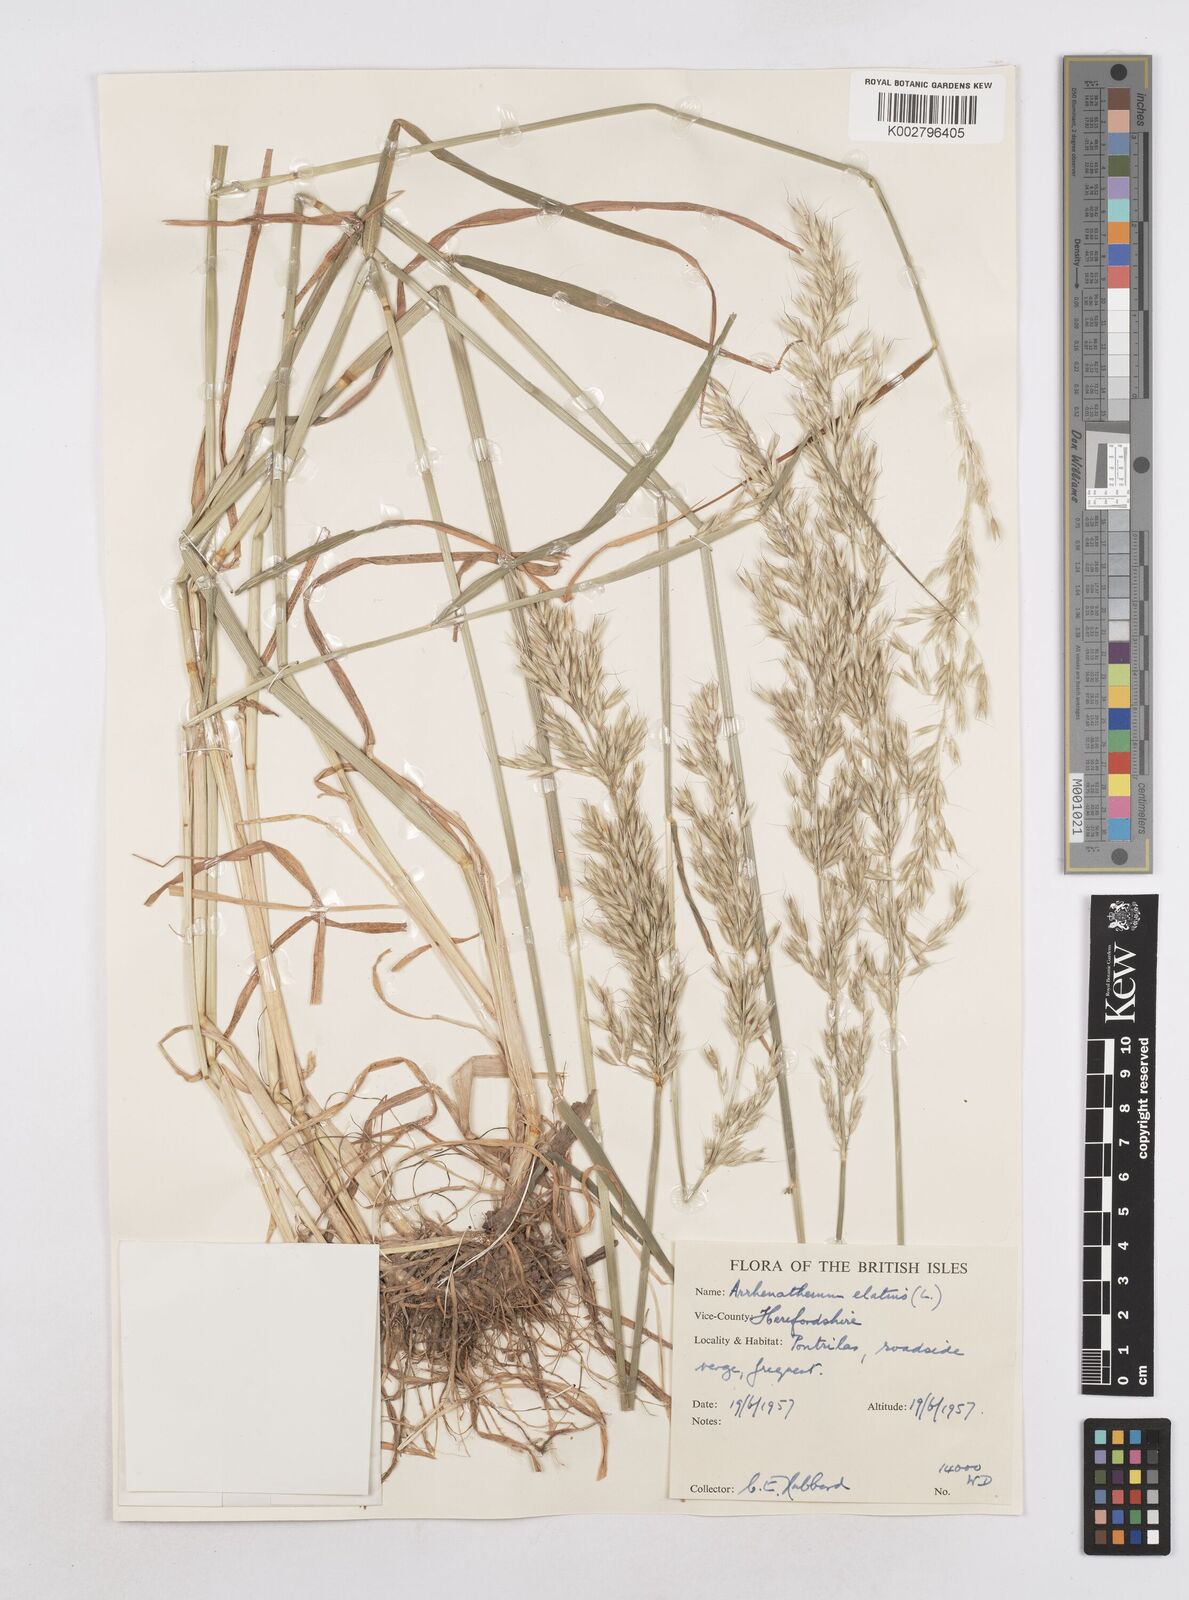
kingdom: Plantae
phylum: Tracheophyta
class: Liliopsida
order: Poales
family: Poaceae
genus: Arrhenatherum
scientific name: Arrhenatherum elatius
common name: Tall oatgrass
